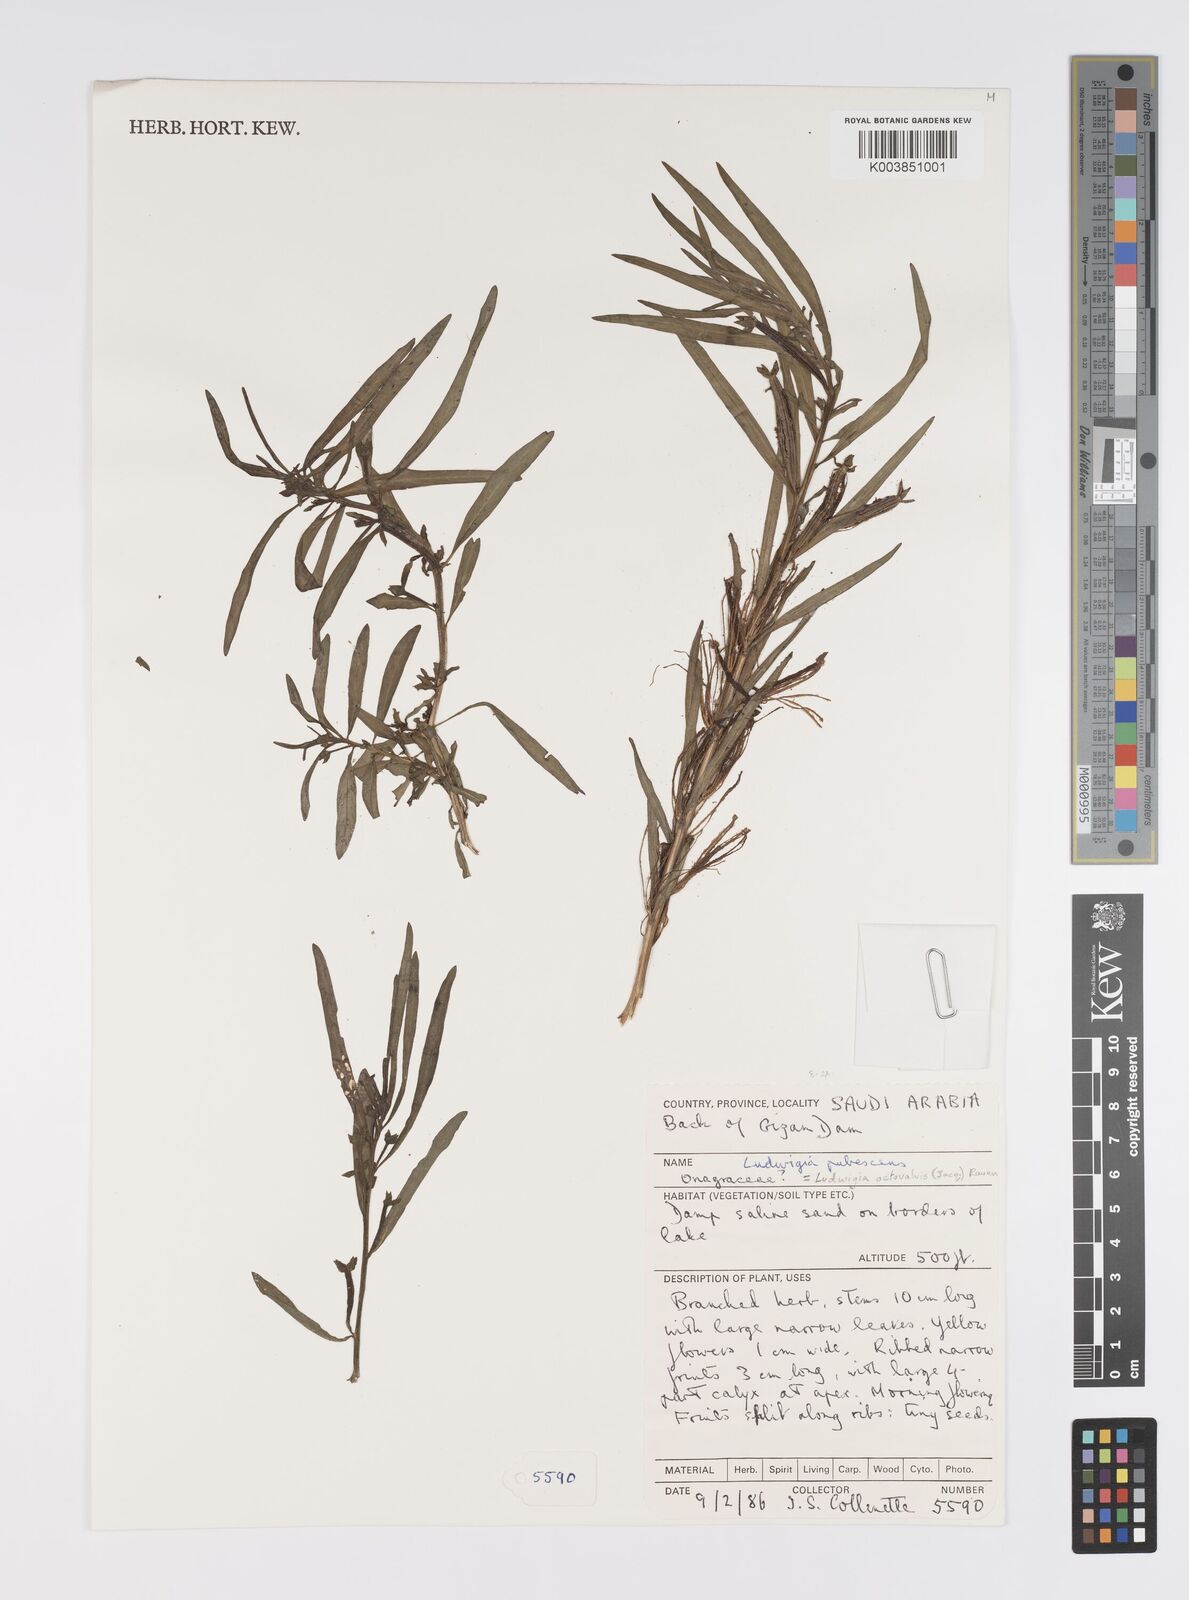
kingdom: Plantae
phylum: Tracheophyta
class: Magnoliopsida
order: Myrtales
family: Onagraceae
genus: Ludwigia
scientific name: Ludwigia octovalvis
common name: Water-primrose
